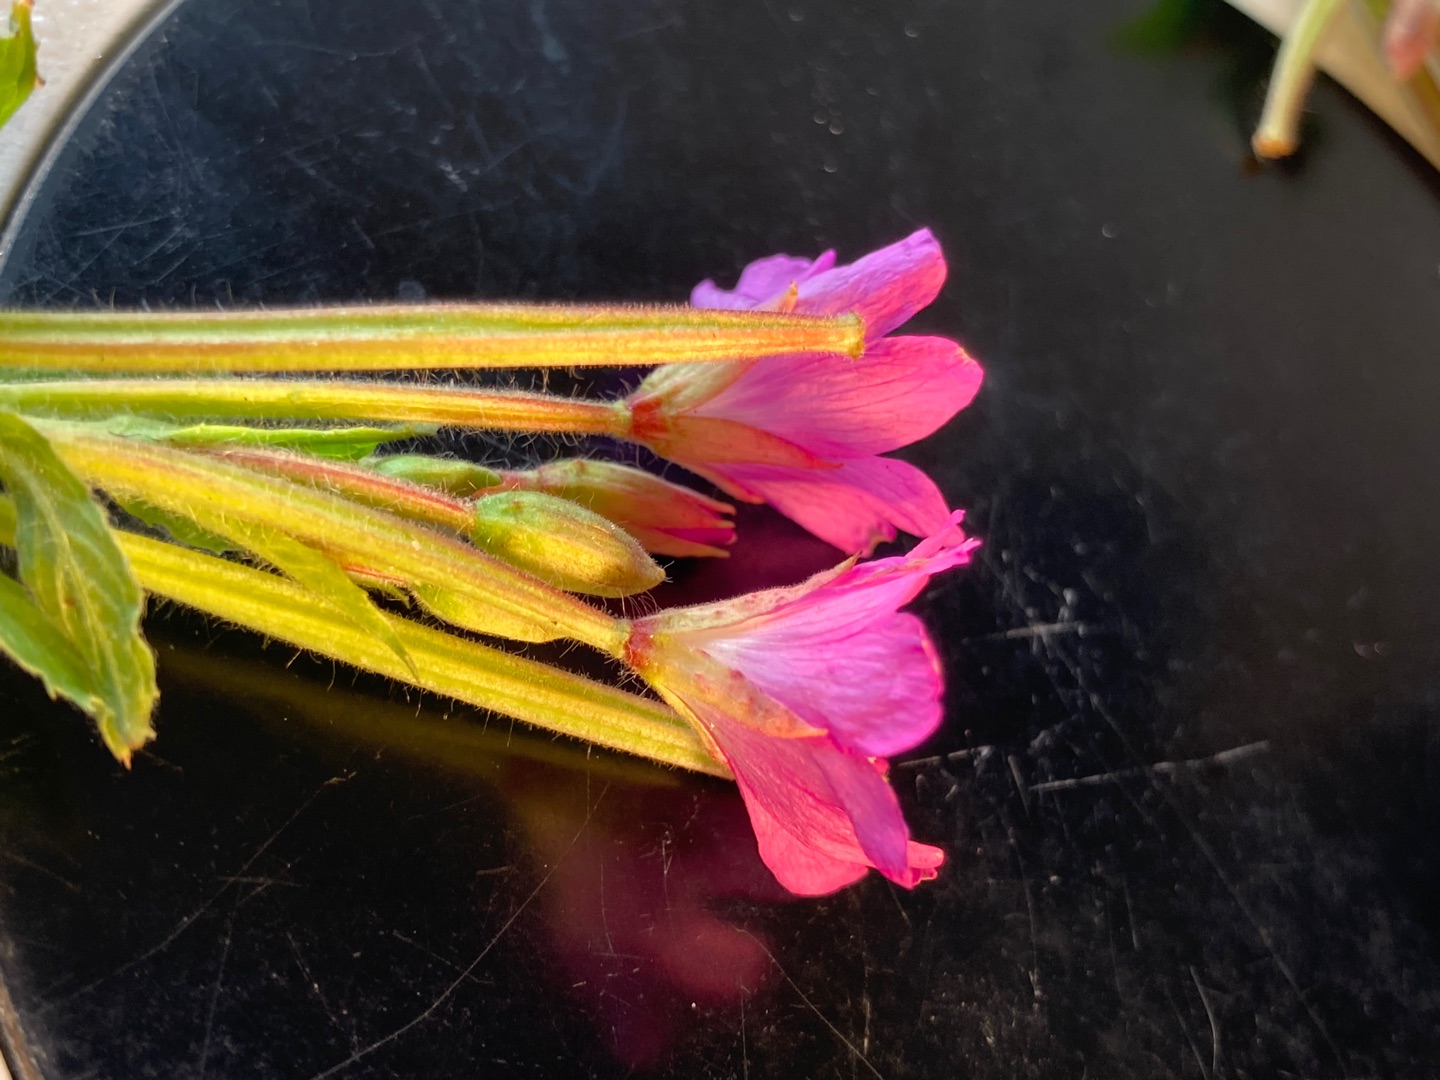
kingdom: Plantae
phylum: Tracheophyta
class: Magnoliopsida
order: Myrtales
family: Onagraceae
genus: Epilobium
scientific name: Epilobium hirsutum
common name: Lådden dueurt
